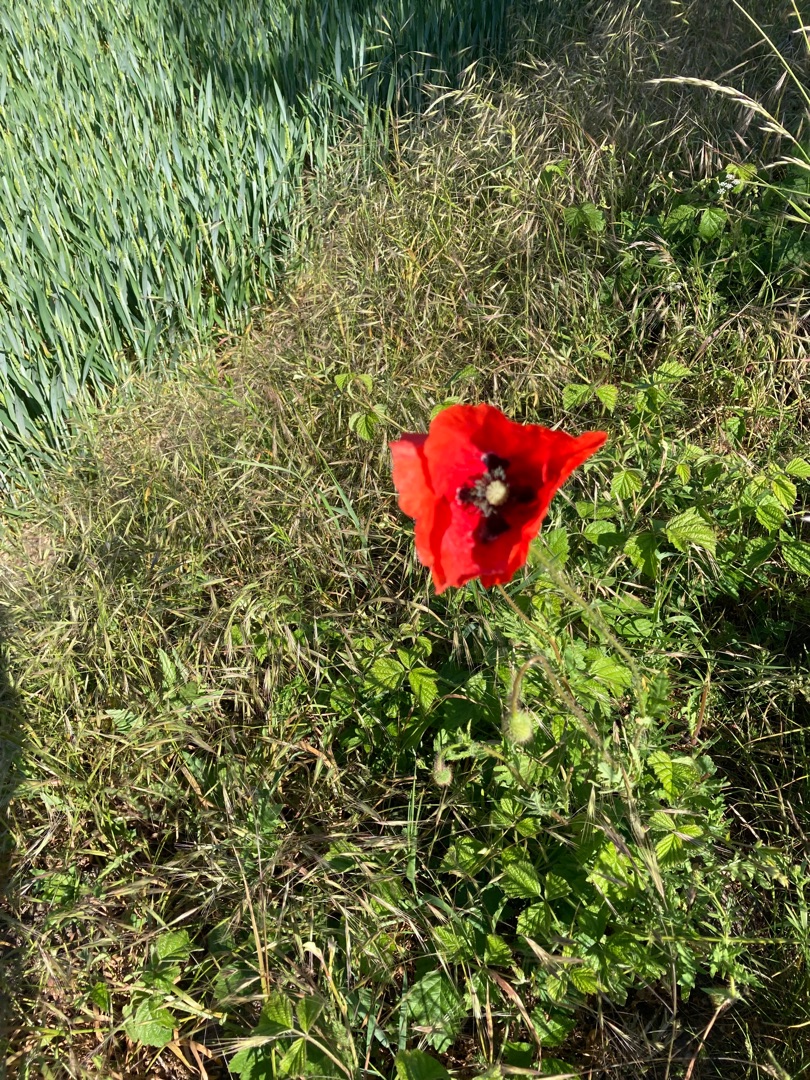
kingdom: Plantae
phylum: Tracheophyta
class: Magnoliopsida
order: Ranunculales
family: Papaveraceae
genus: Papaver
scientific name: Papaver rhoeas
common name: Korn-valmue
